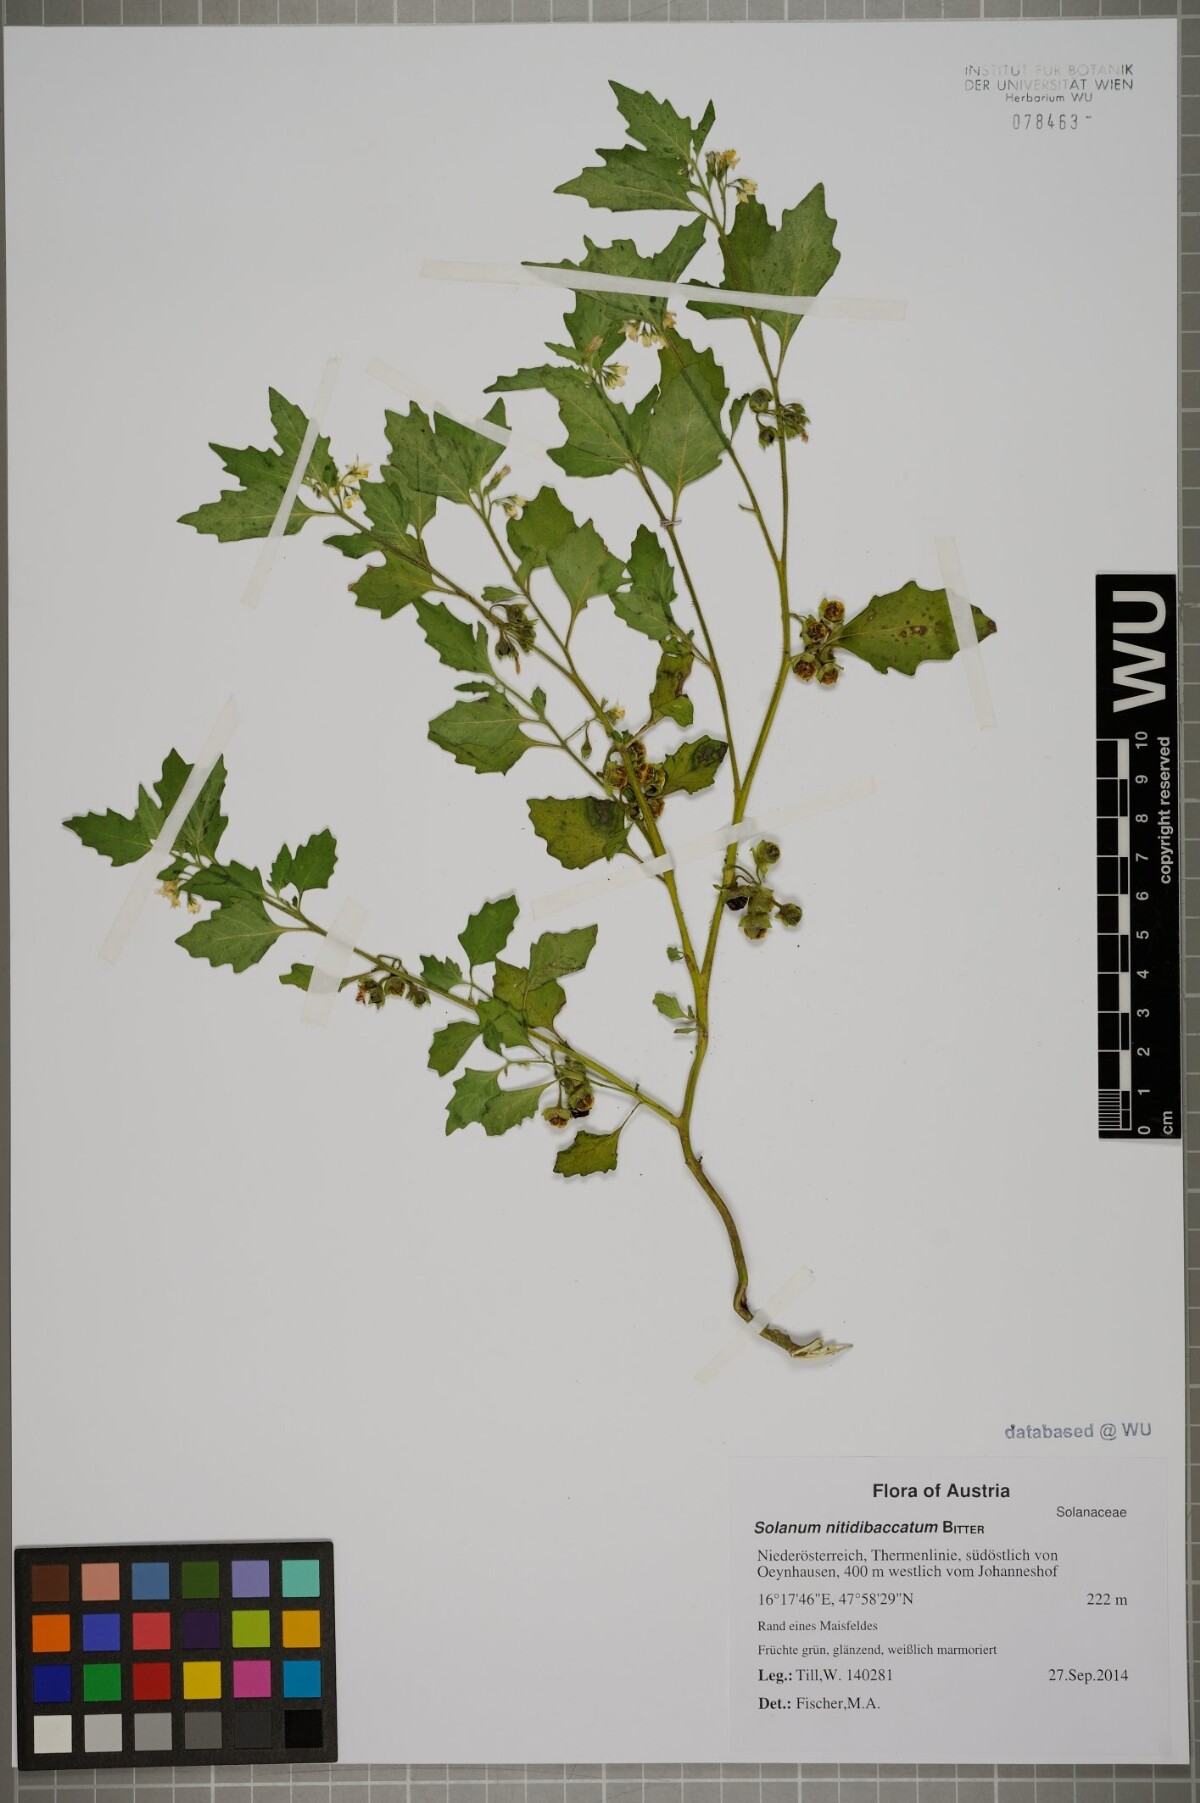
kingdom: Plantae
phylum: Tracheophyta
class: Magnoliopsida
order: Solanales
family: Solanaceae
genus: Solanum
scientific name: Solanum nitidibaccatum
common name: Hairy nightshade
